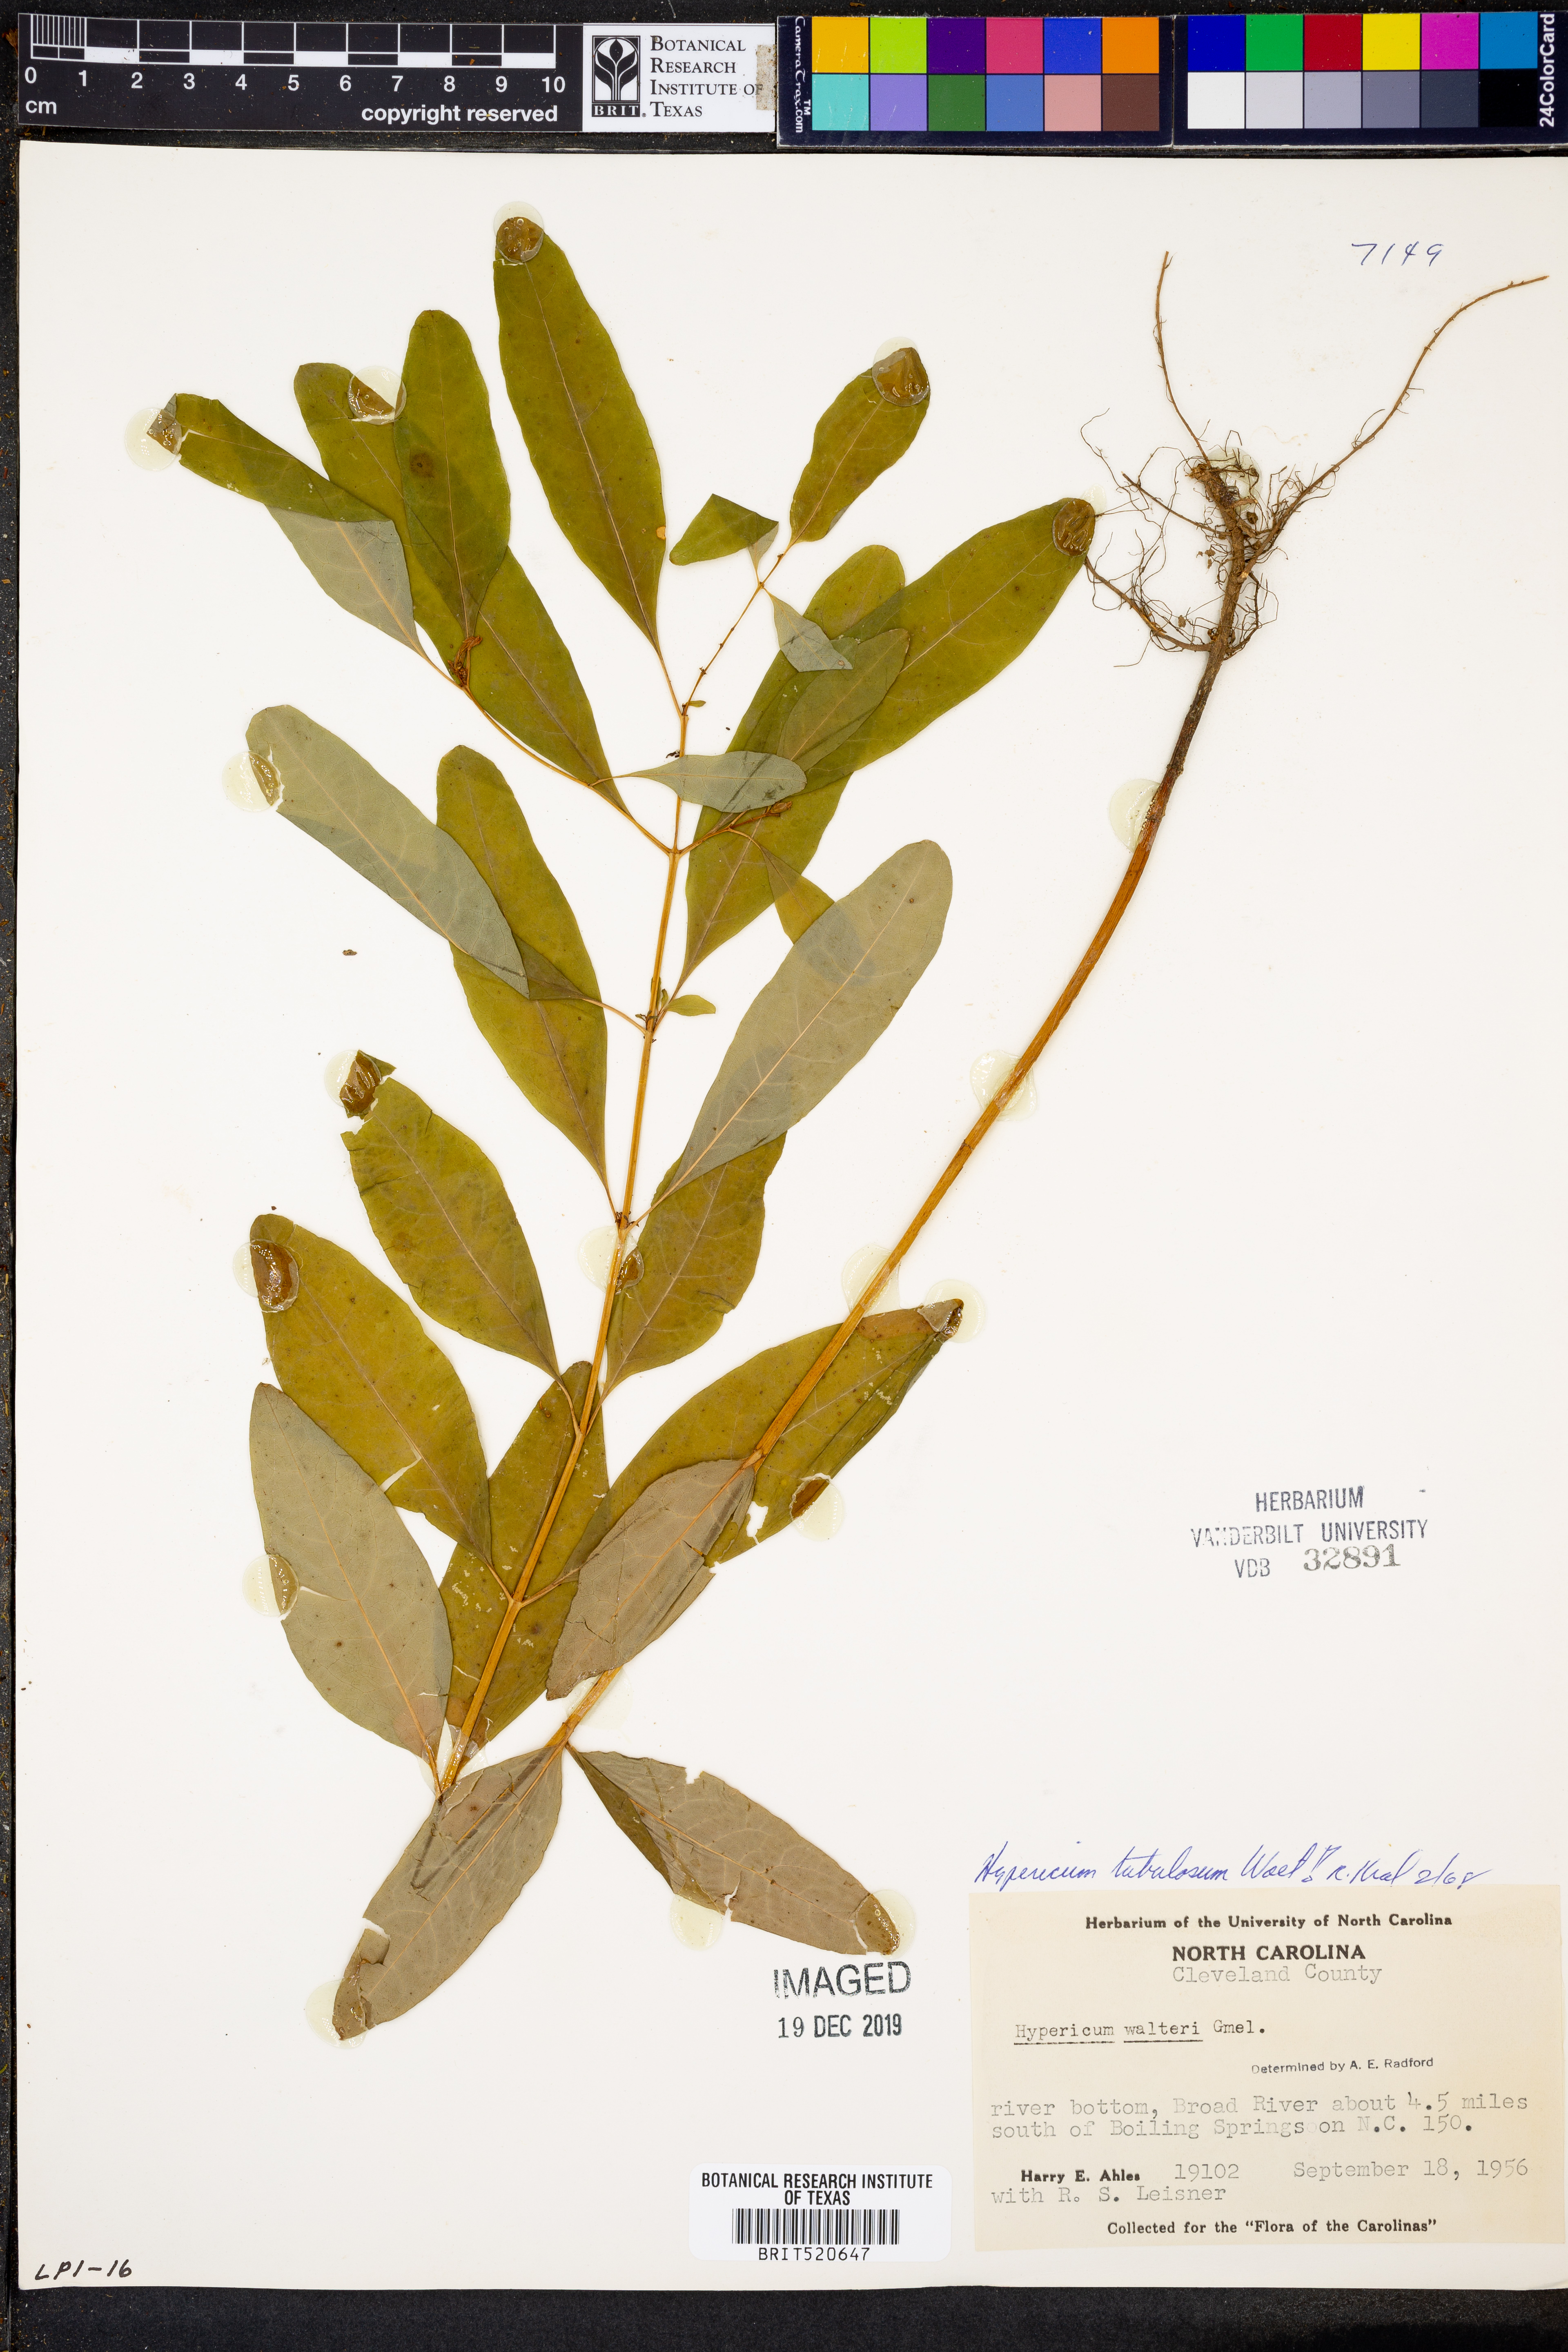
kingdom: Plantae
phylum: Tracheophyta
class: Magnoliopsida
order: Malpighiales
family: Hypericaceae
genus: Triadenum
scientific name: Triadenum tubulosum
